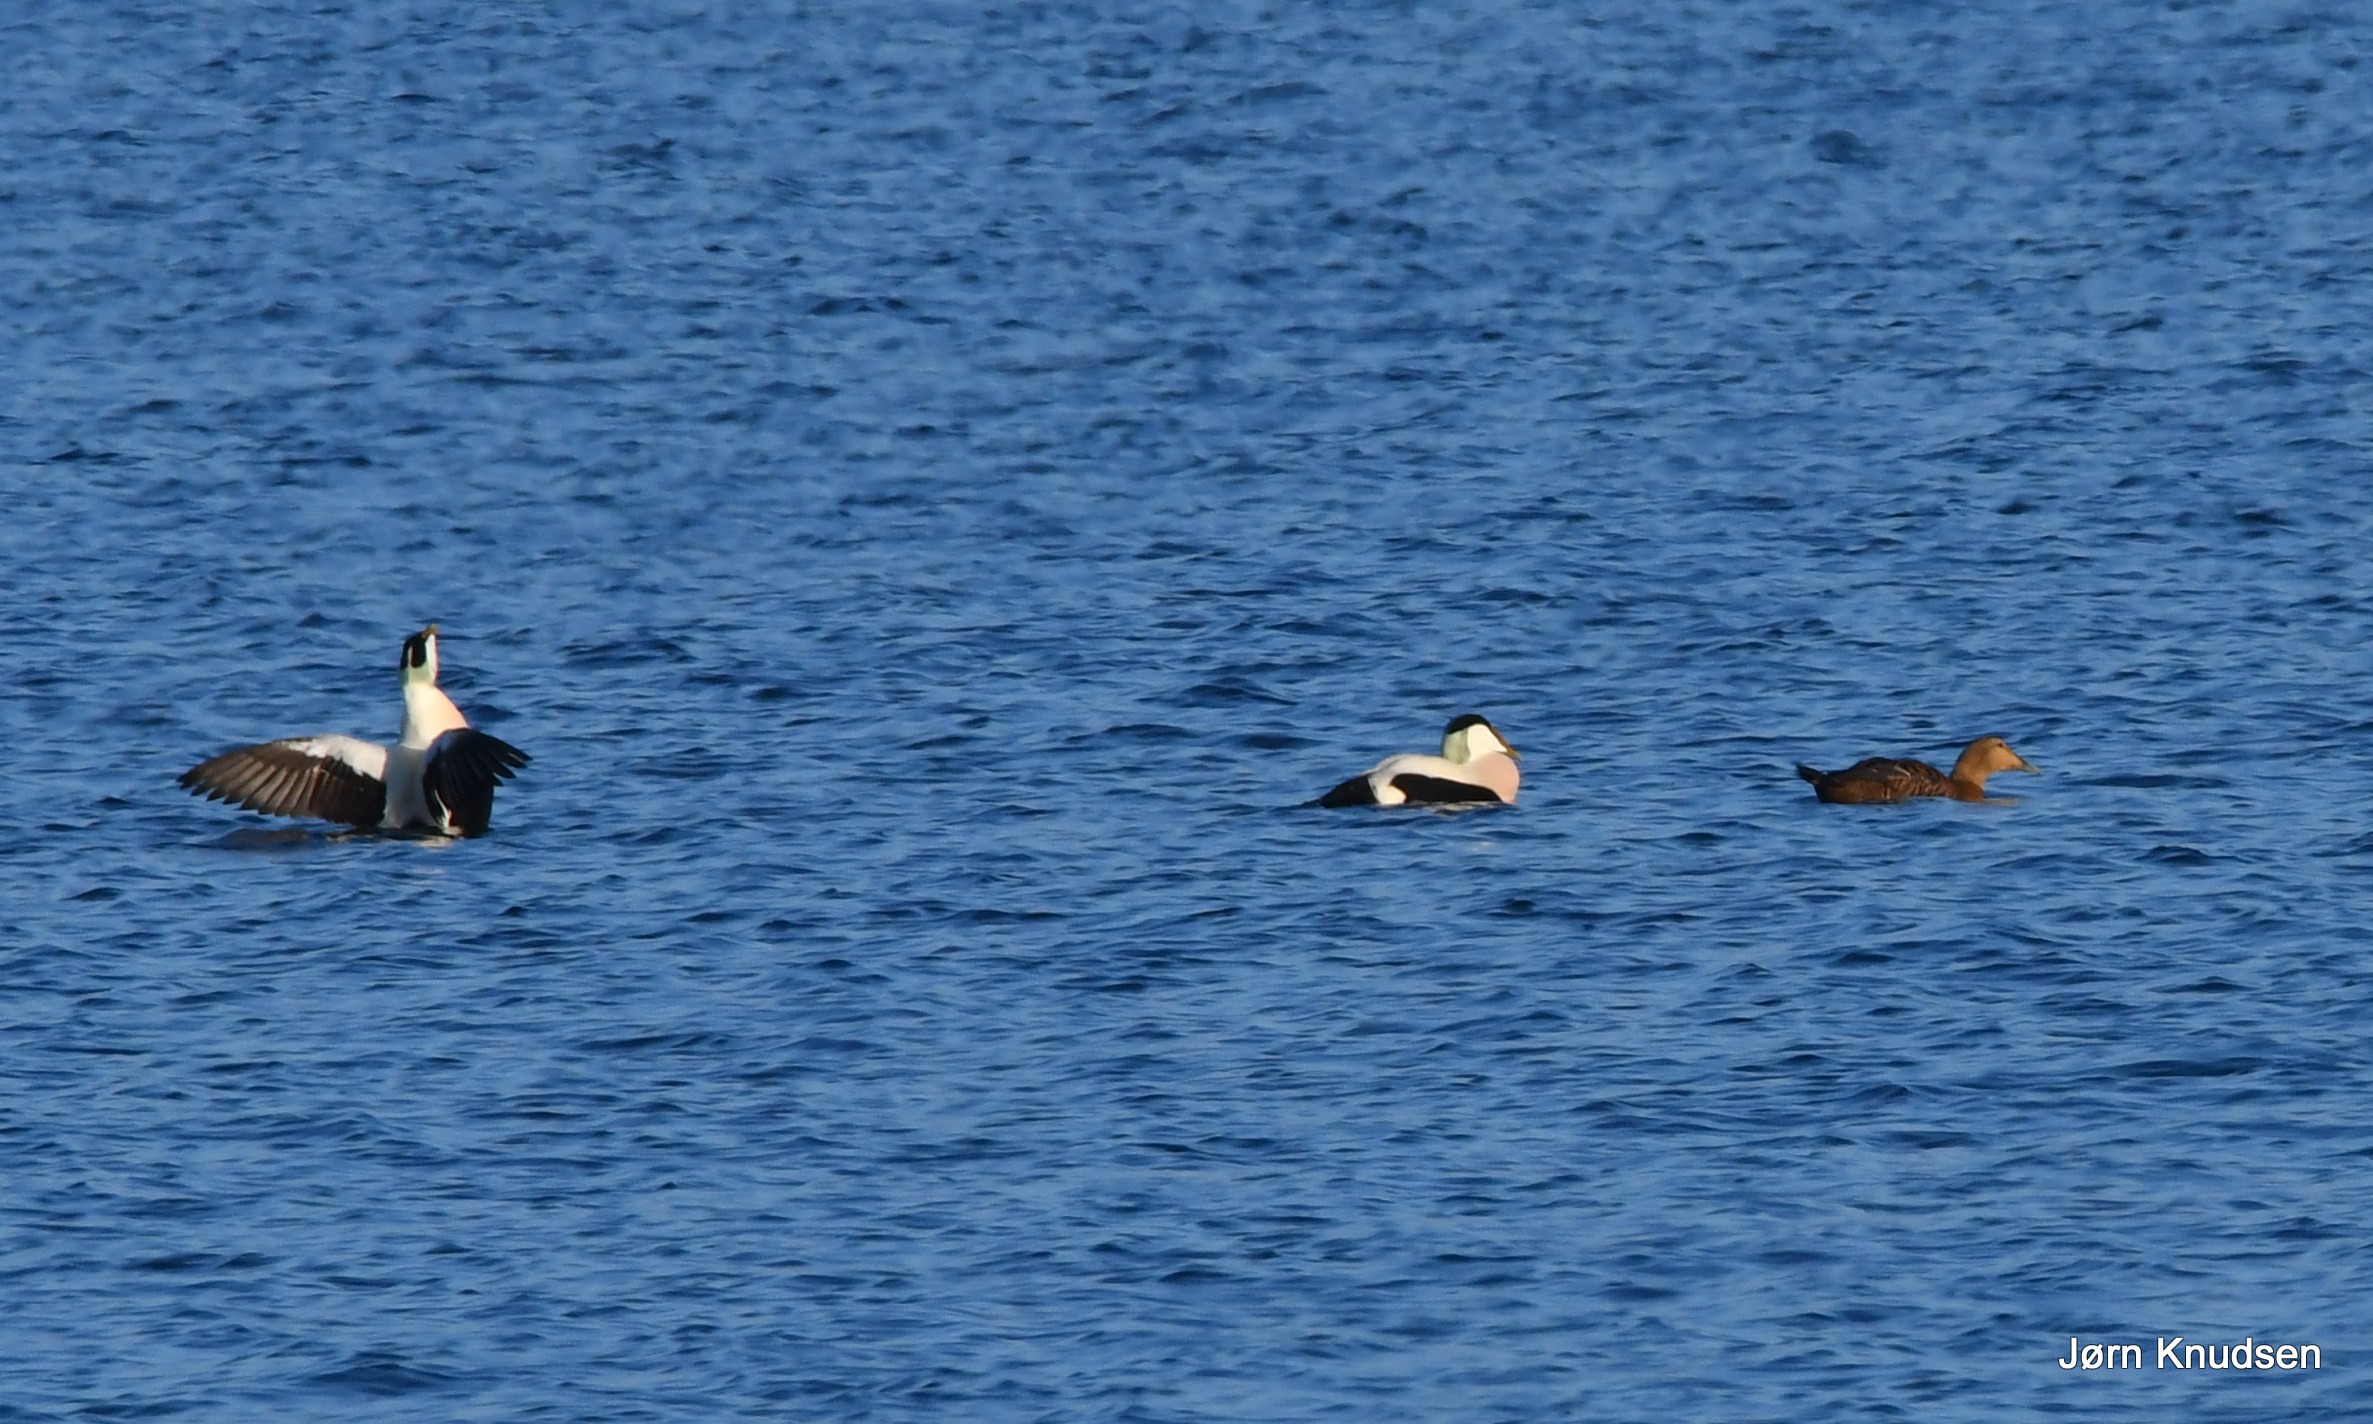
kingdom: Animalia
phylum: Chordata
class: Aves
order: Anseriformes
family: Anatidae
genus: Somateria
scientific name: Somateria mollissima
